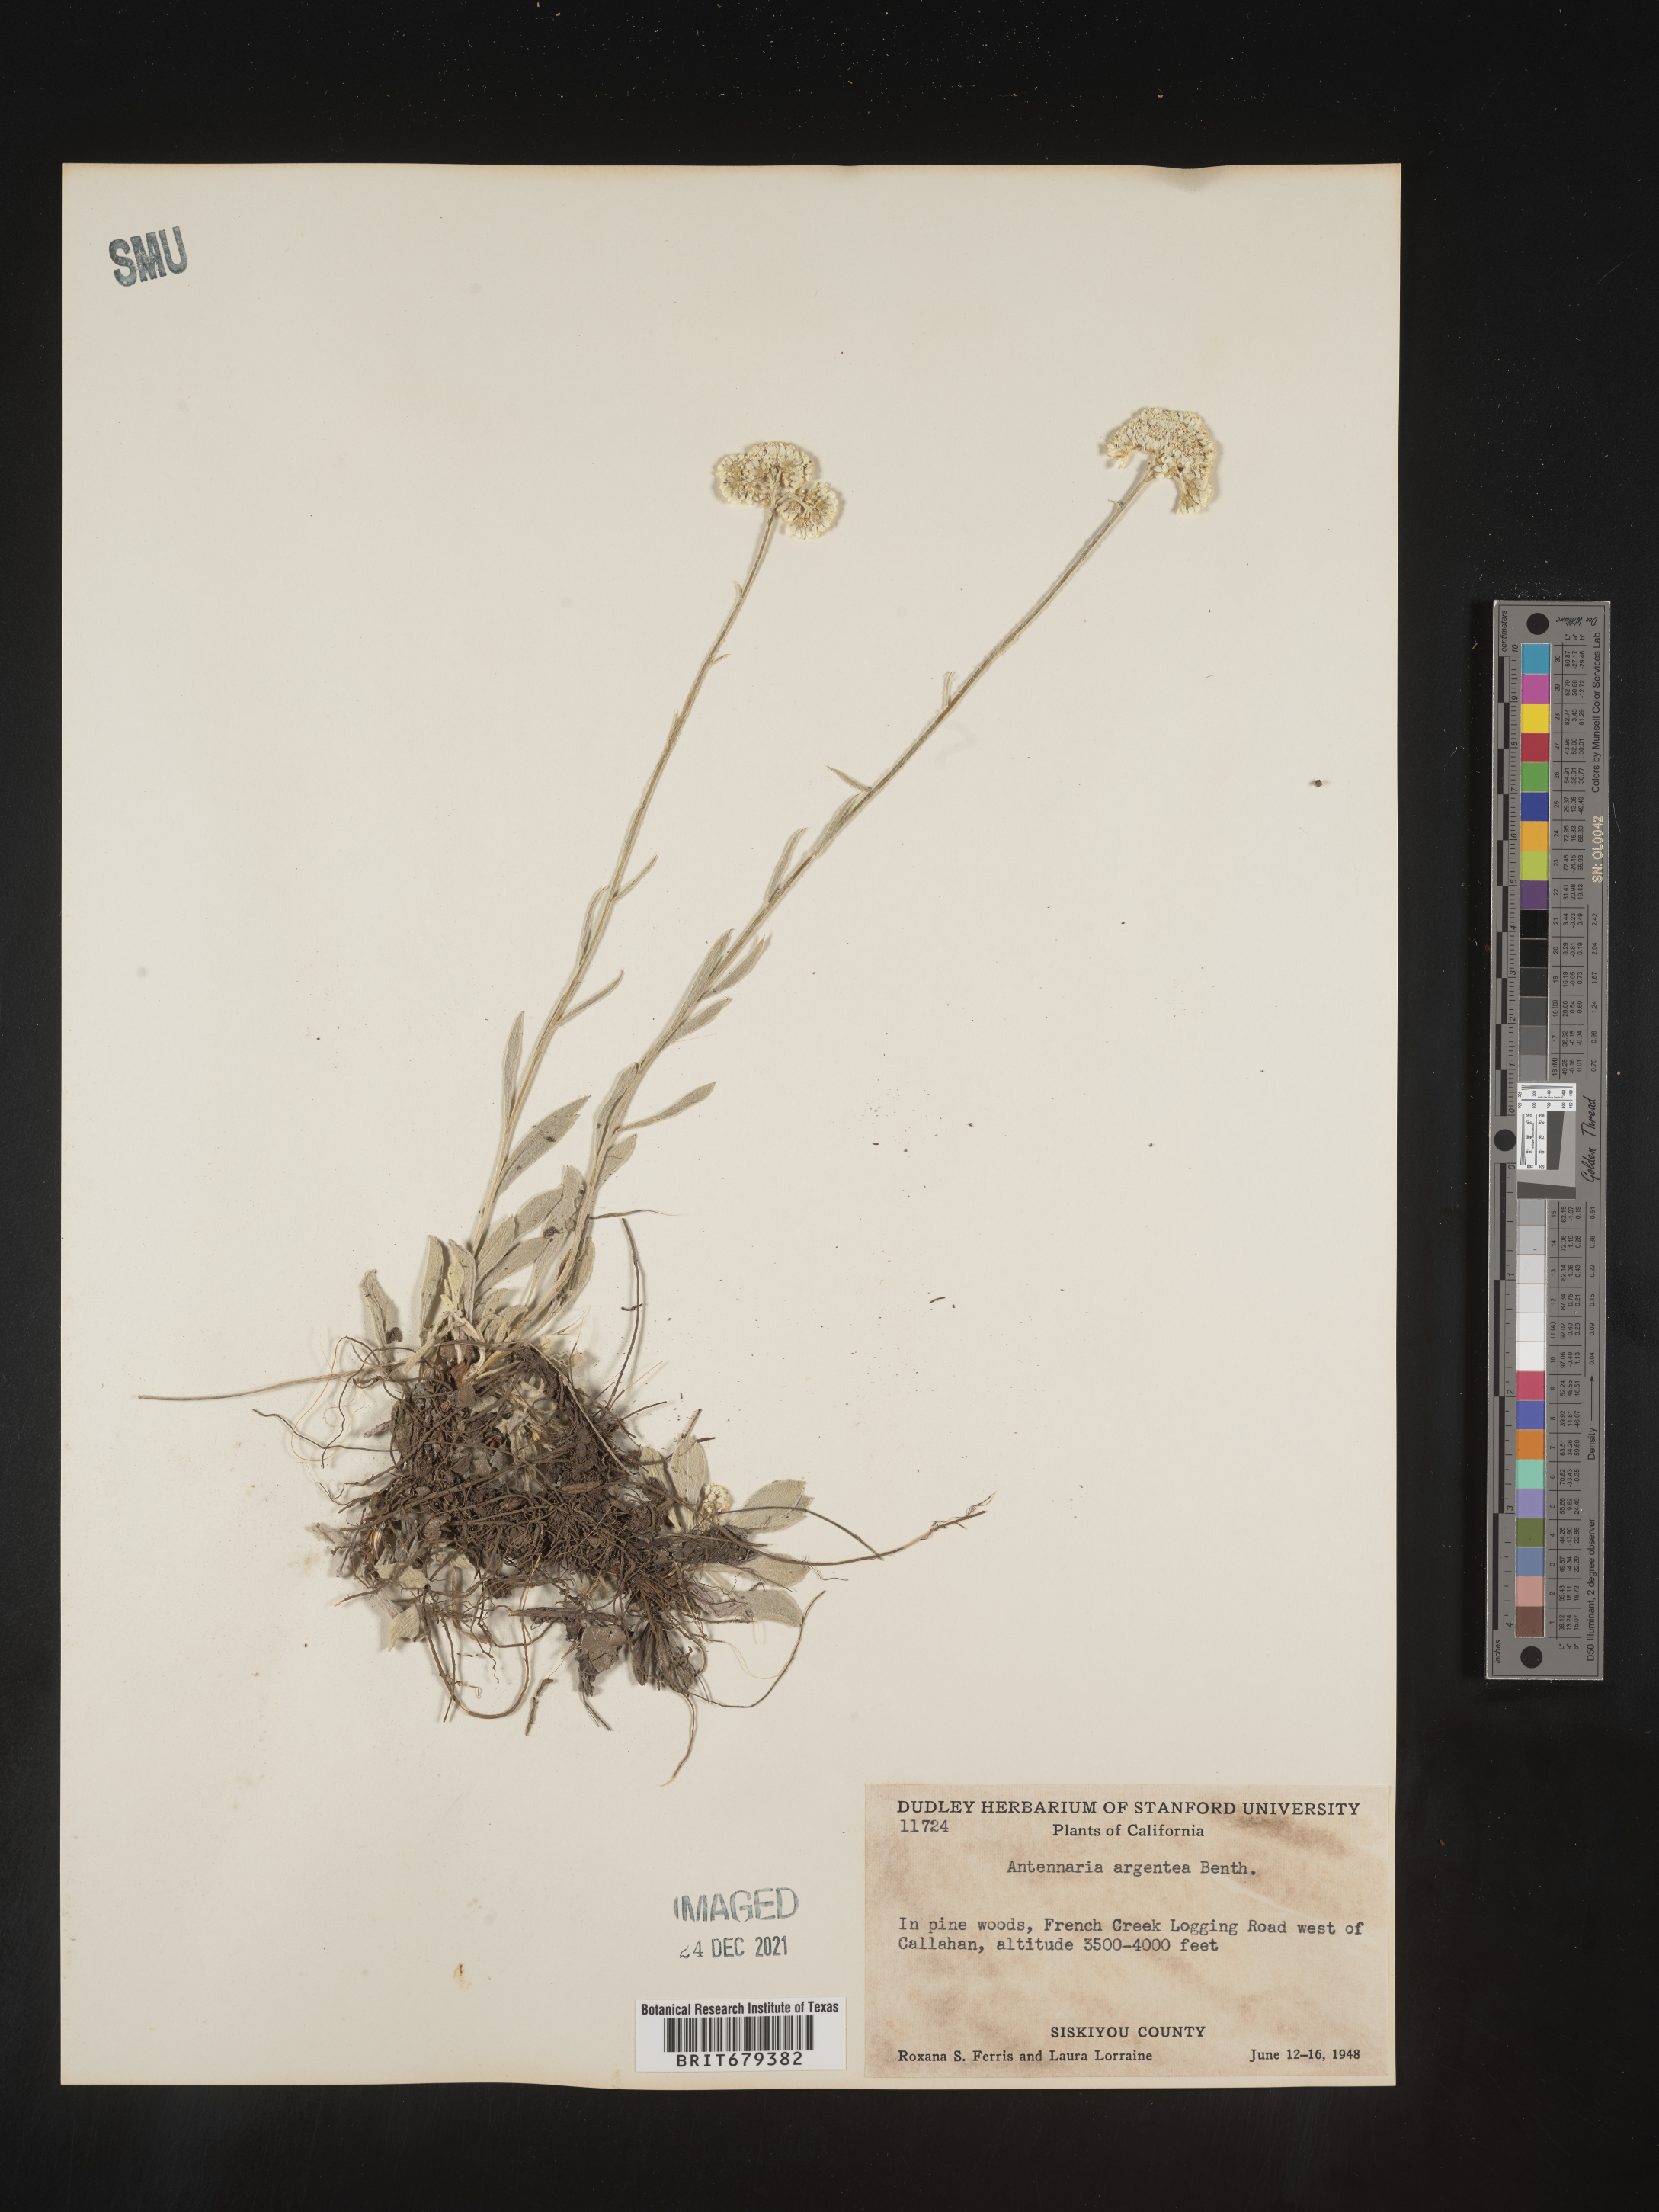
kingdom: Plantae
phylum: Tracheophyta
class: Magnoliopsida
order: Asterales
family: Asteraceae
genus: Antennaria
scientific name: Antennaria argentea
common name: Silver pussytoes
